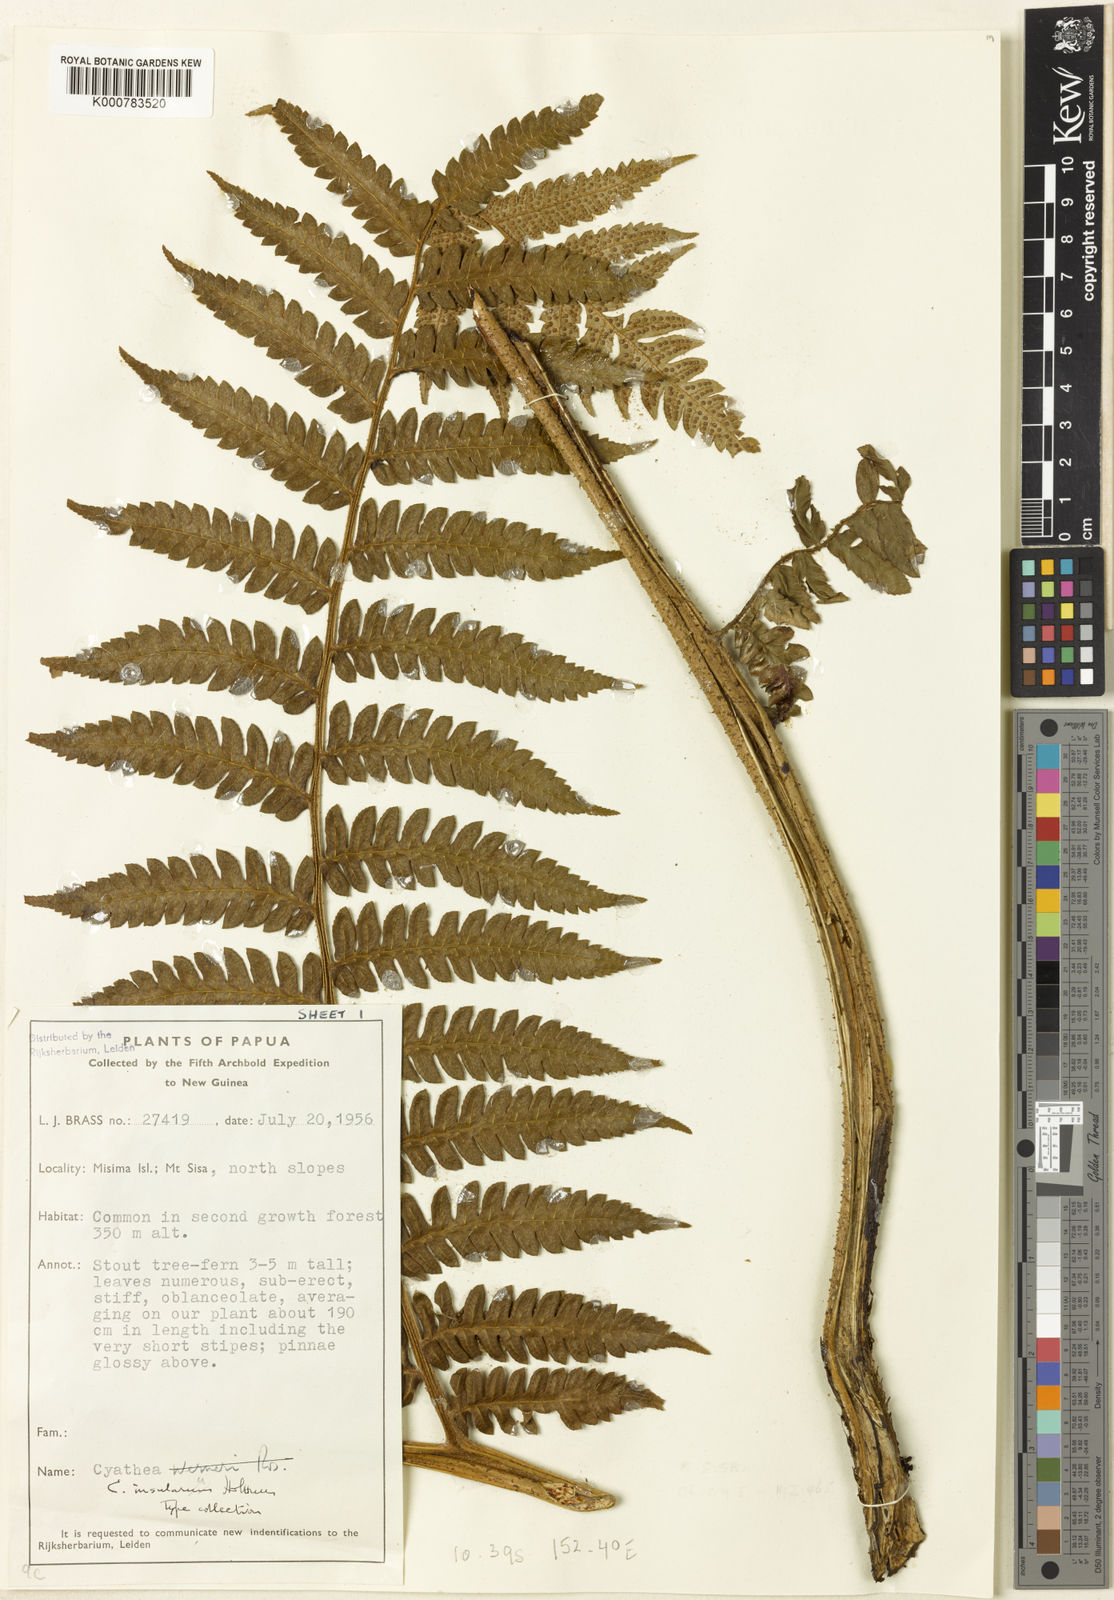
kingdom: Plantae
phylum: Tracheophyta
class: Polypodiopsida
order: Cyatheales
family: Cyatheaceae
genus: Alsophila
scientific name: Alsophila insulana
